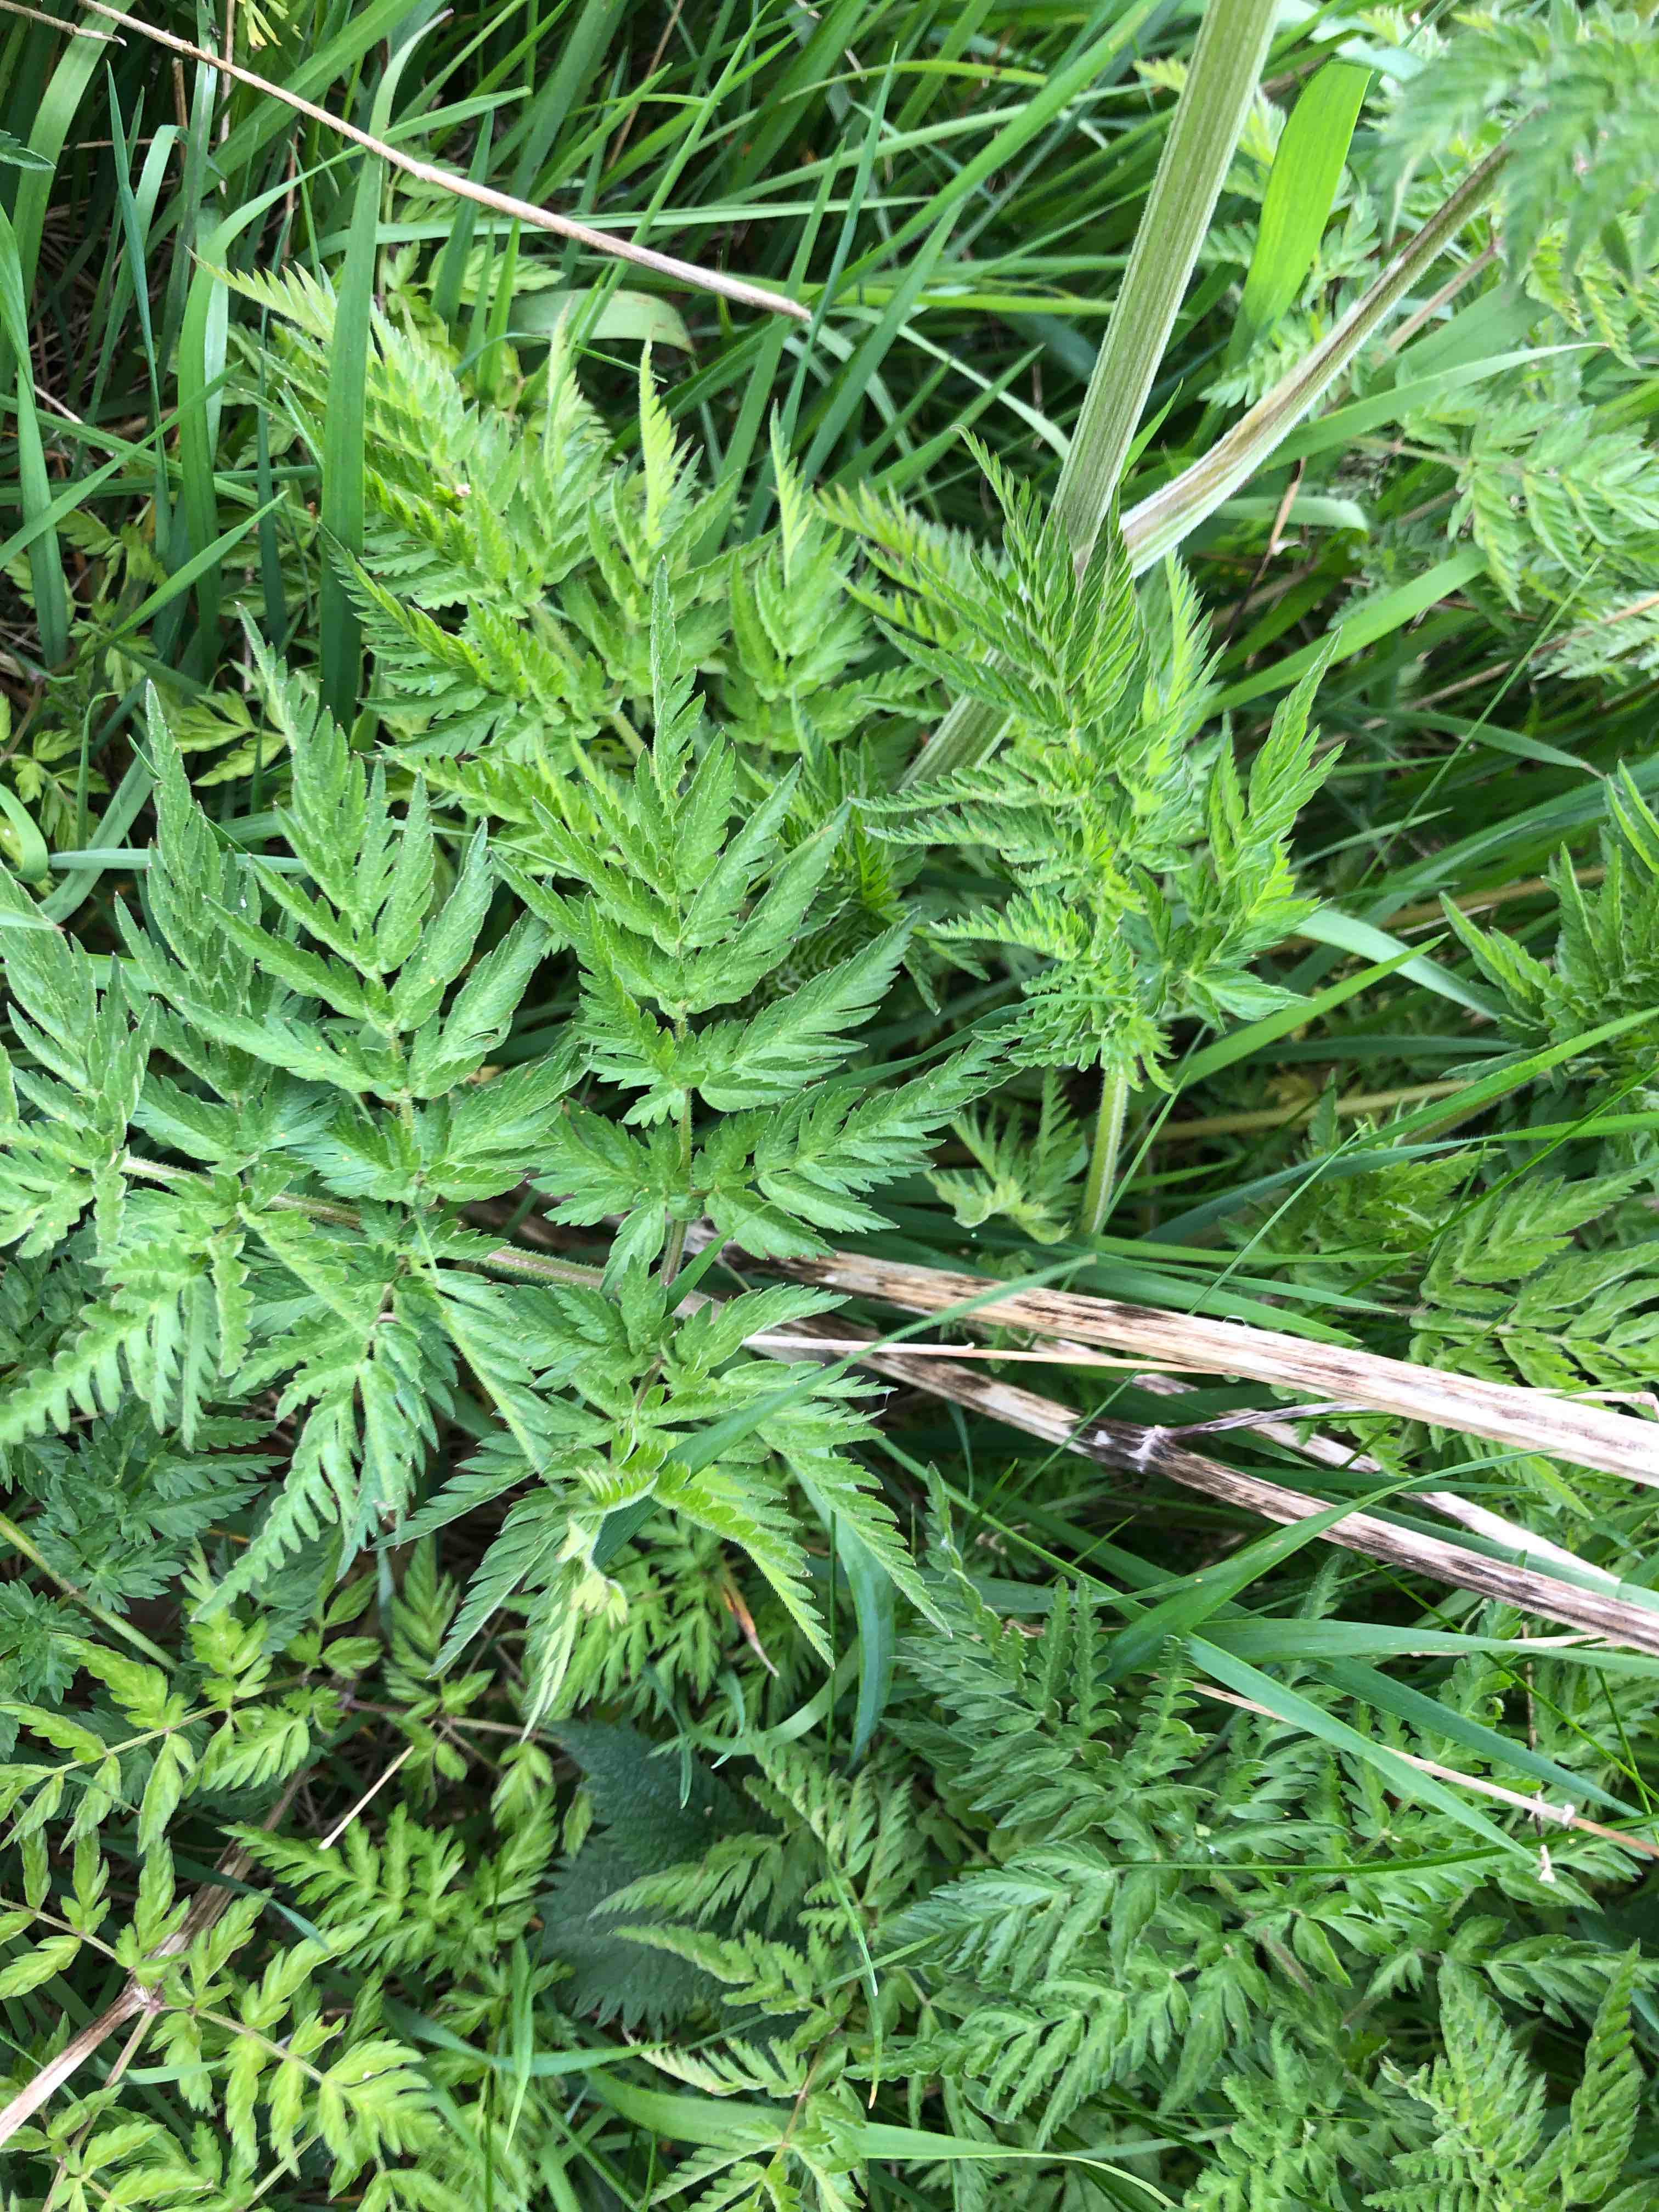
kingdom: Fungi
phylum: Ascomycota
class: Leotiomycetes
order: Helotiales
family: Lachnaceae
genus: Lachnum
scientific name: Lachnum mollissimum
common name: smuk frynseskive
